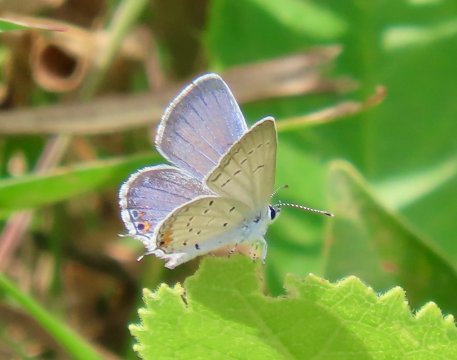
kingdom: Animalia
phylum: Arthropoda
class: Insecta
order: Lepidoptera
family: Lycaenidae
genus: Elkalyce
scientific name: Elkalyce comyntas
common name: Eastern Tailed-Blue
